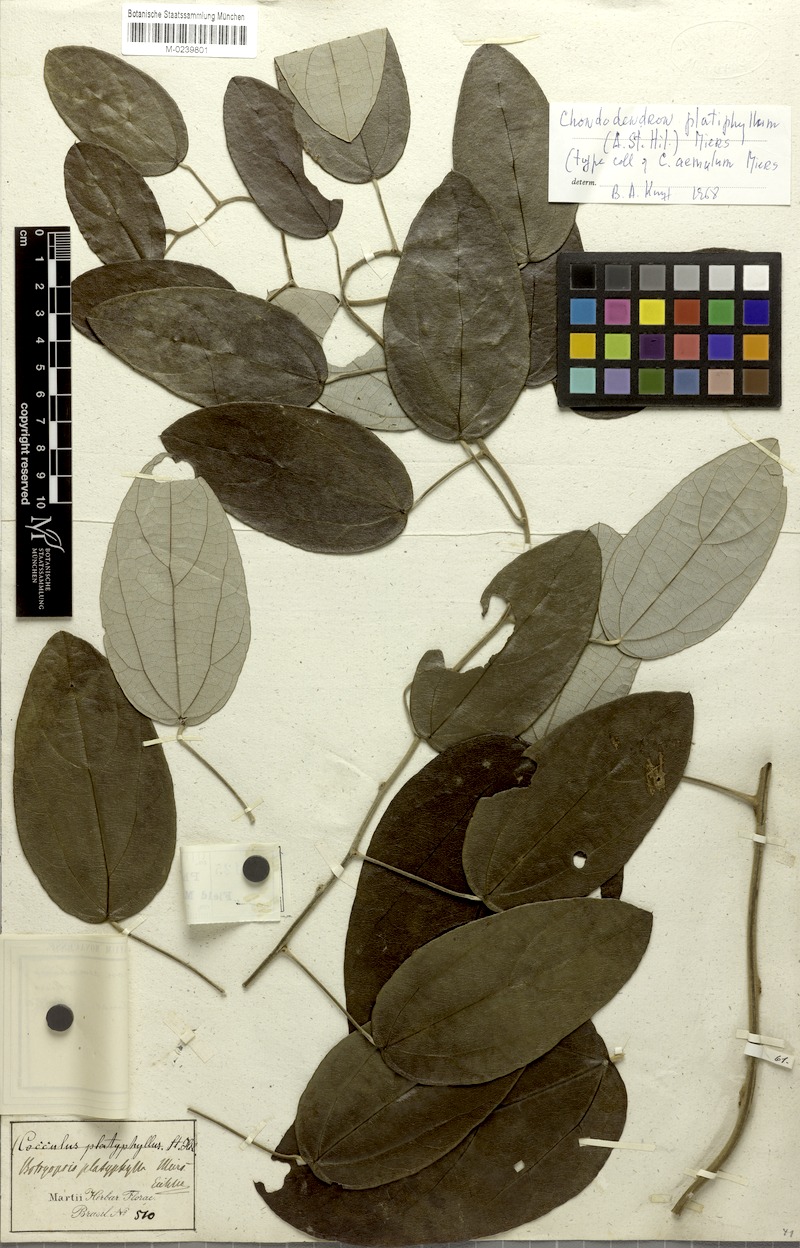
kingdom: Plantae
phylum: Tracheophyta
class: Magnoliopsida
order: Ranunculales
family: Menispermaceae
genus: Chondrodendron
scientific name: Chondrodendron platyphyllum
